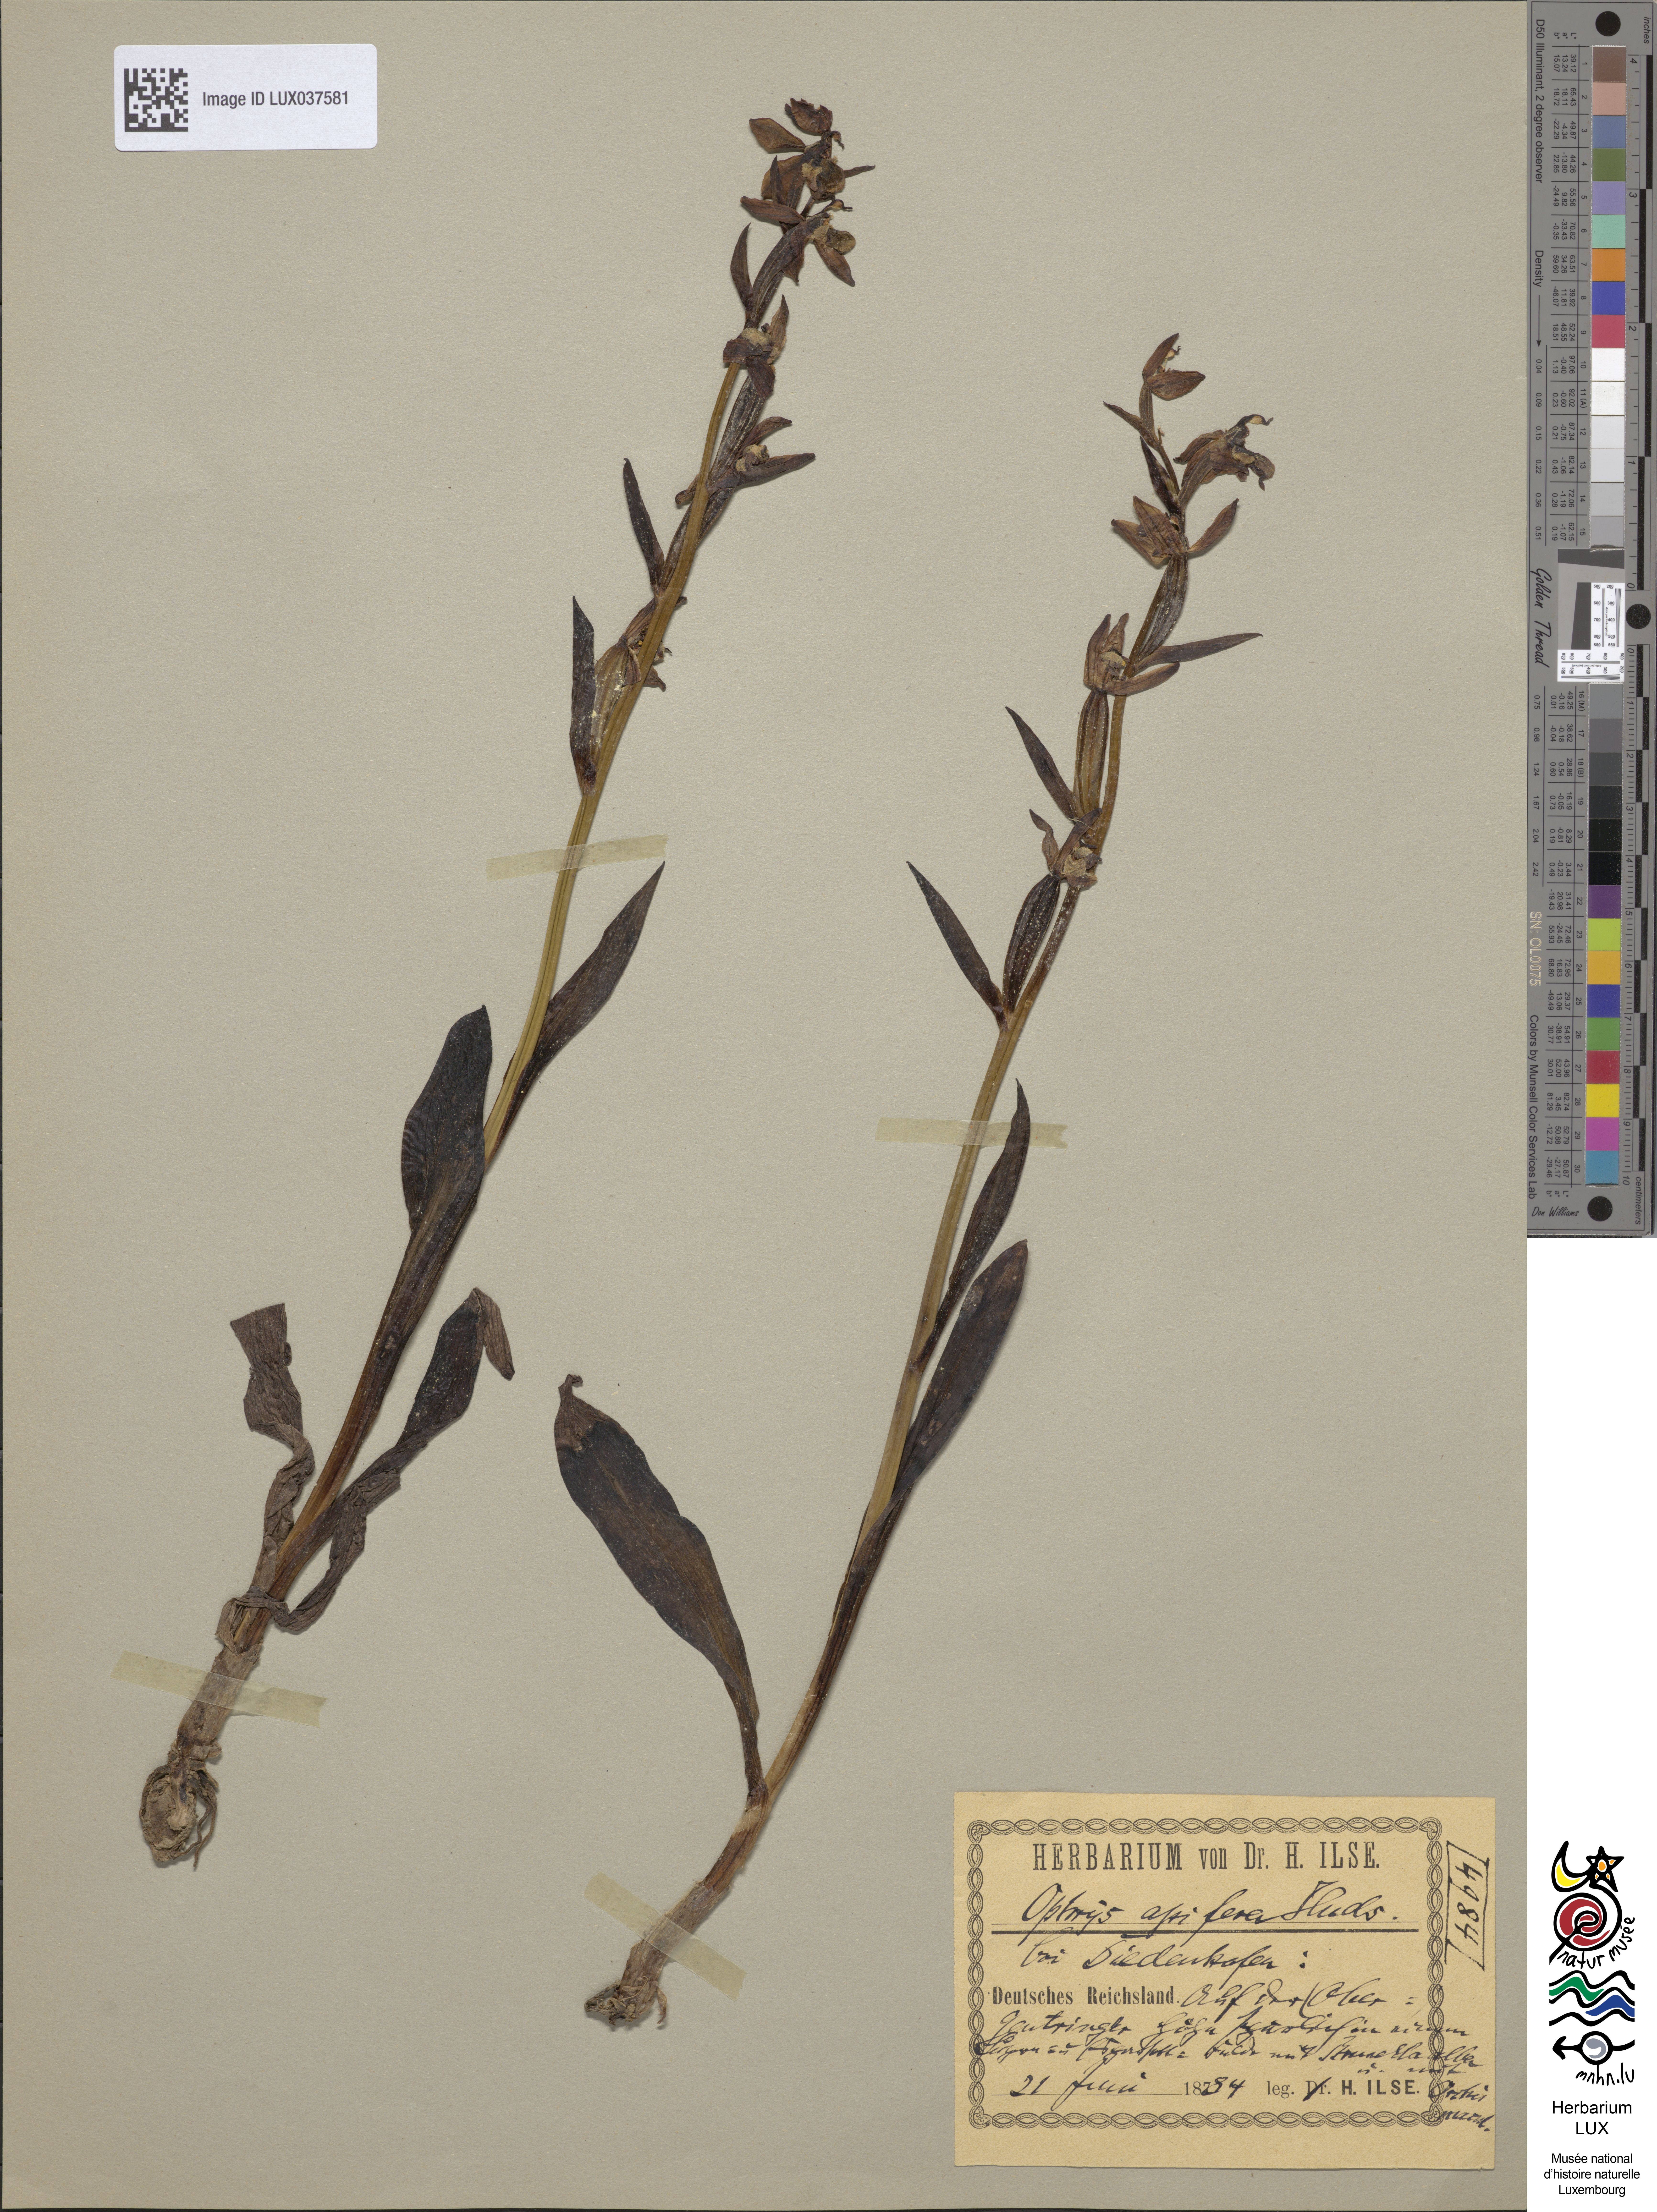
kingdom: Plantae
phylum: Tracheophyta
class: Liliopsida
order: Asparagales
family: Orchidaceae
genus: Ophrys
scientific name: Ophrys apifera
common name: Bee orchid
